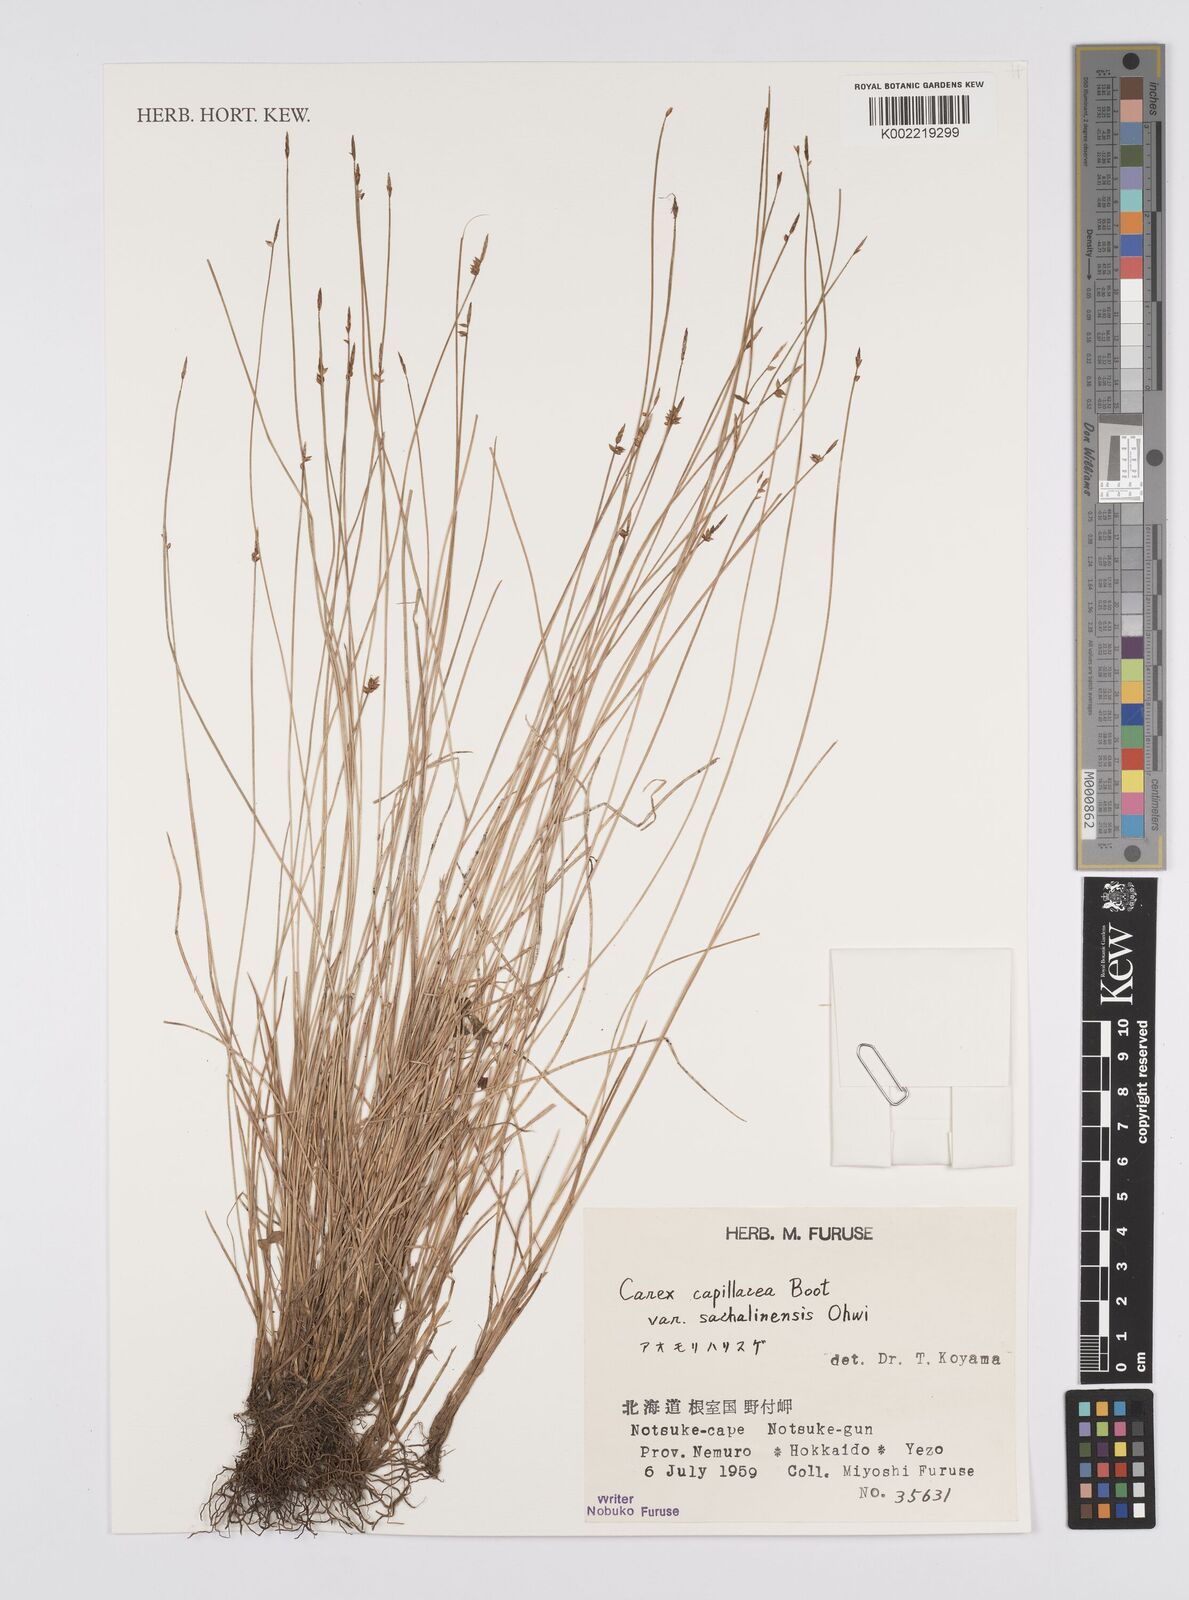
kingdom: Plantae
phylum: Tracheophyta
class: Liliopsida
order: Poales
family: Cyperaceae
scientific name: Cyperaceae
